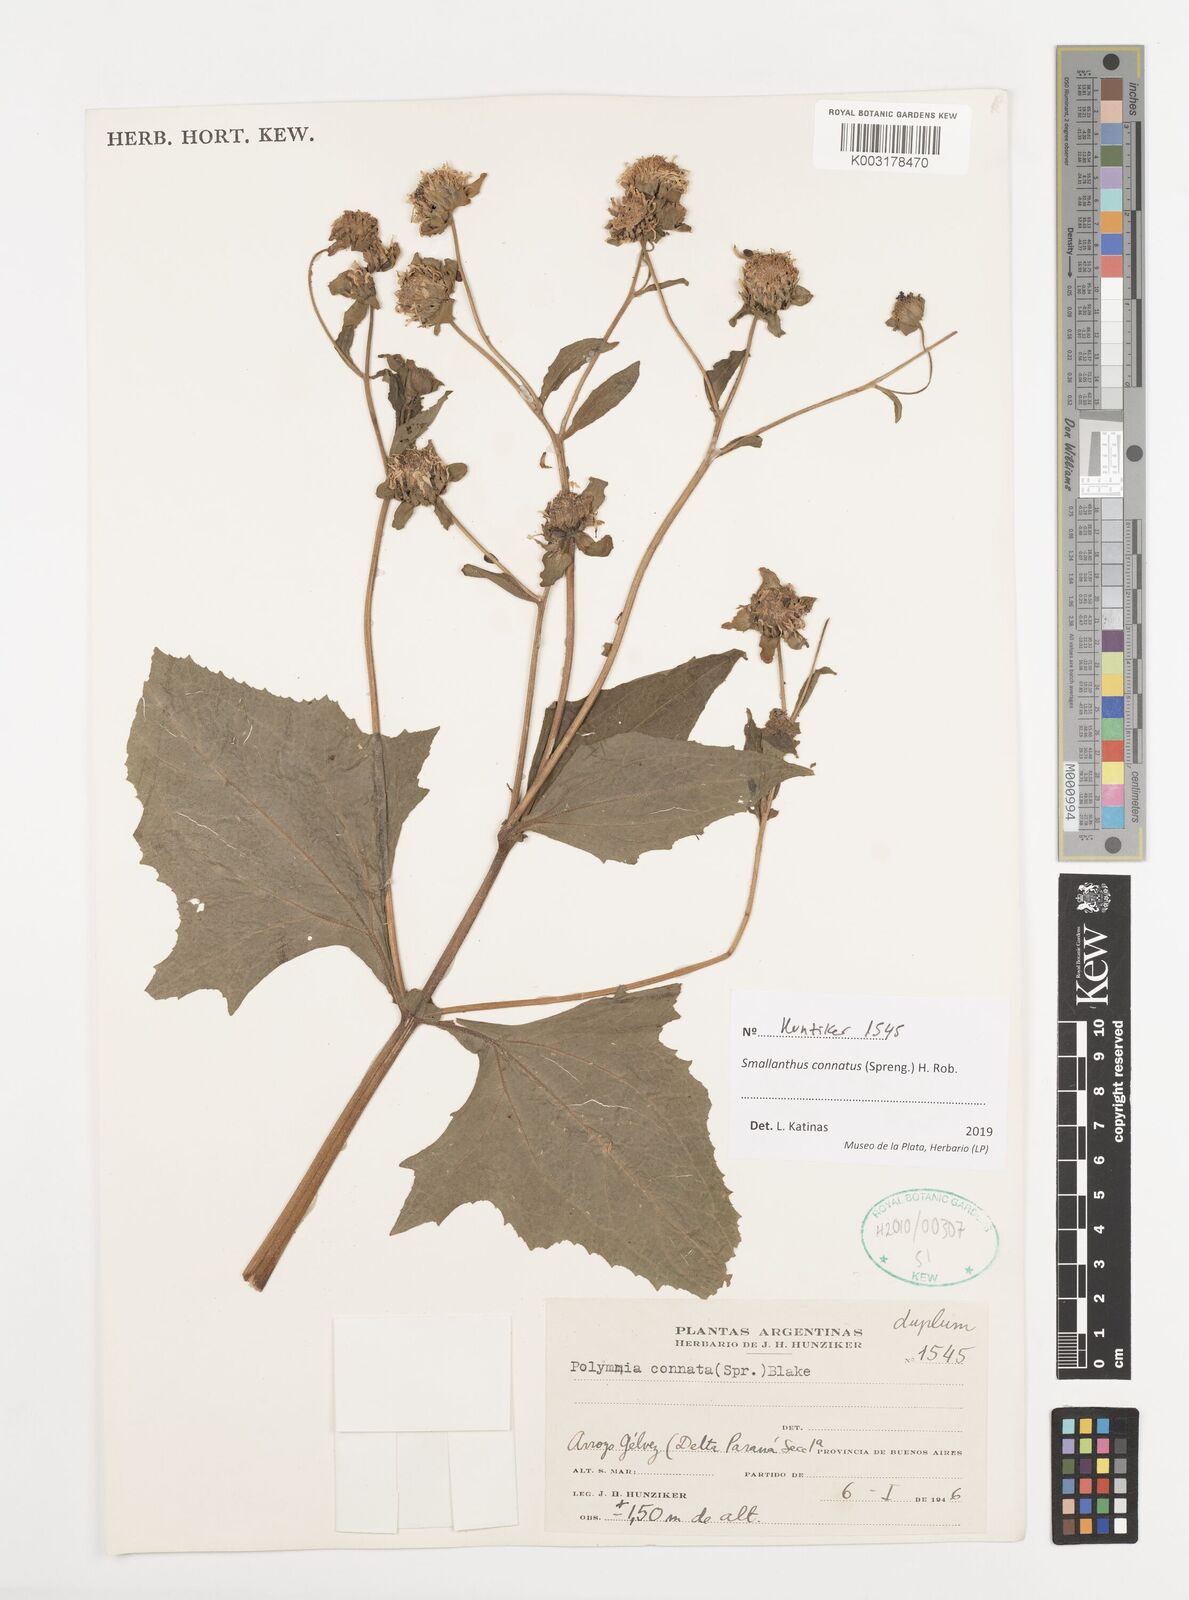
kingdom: Plantae
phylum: Tracheophyta
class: Magnoliopsida
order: Asterales
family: Asteraceae
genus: Smallanthus
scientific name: Smallanthus connatus
